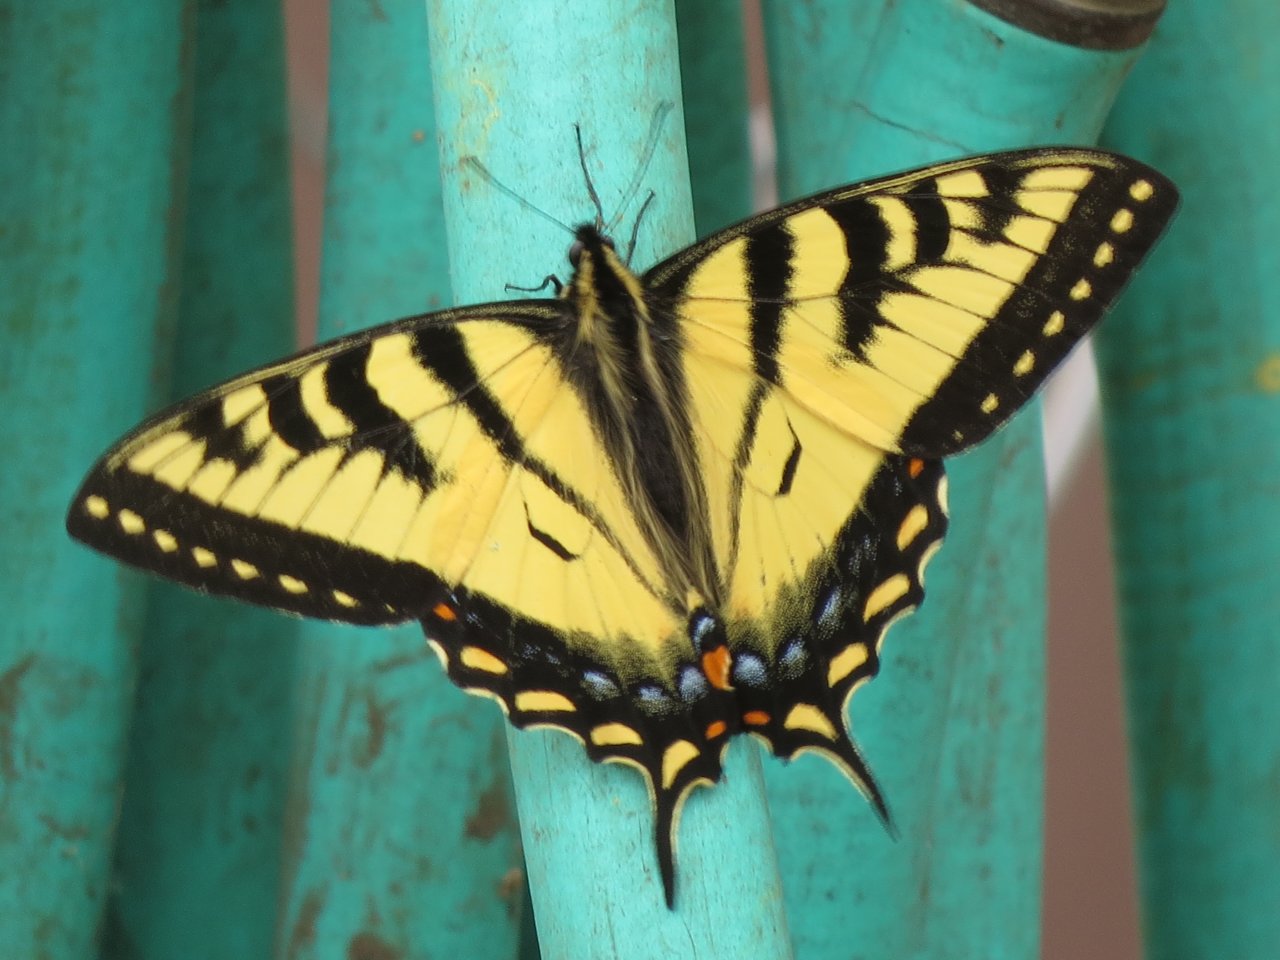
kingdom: Animalia
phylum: Arthropoda
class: Insecta
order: Lepidoptera
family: Papilionidae
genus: Pterourus
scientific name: Pterourus canadensis
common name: Canadian Tiger Swallowtail
